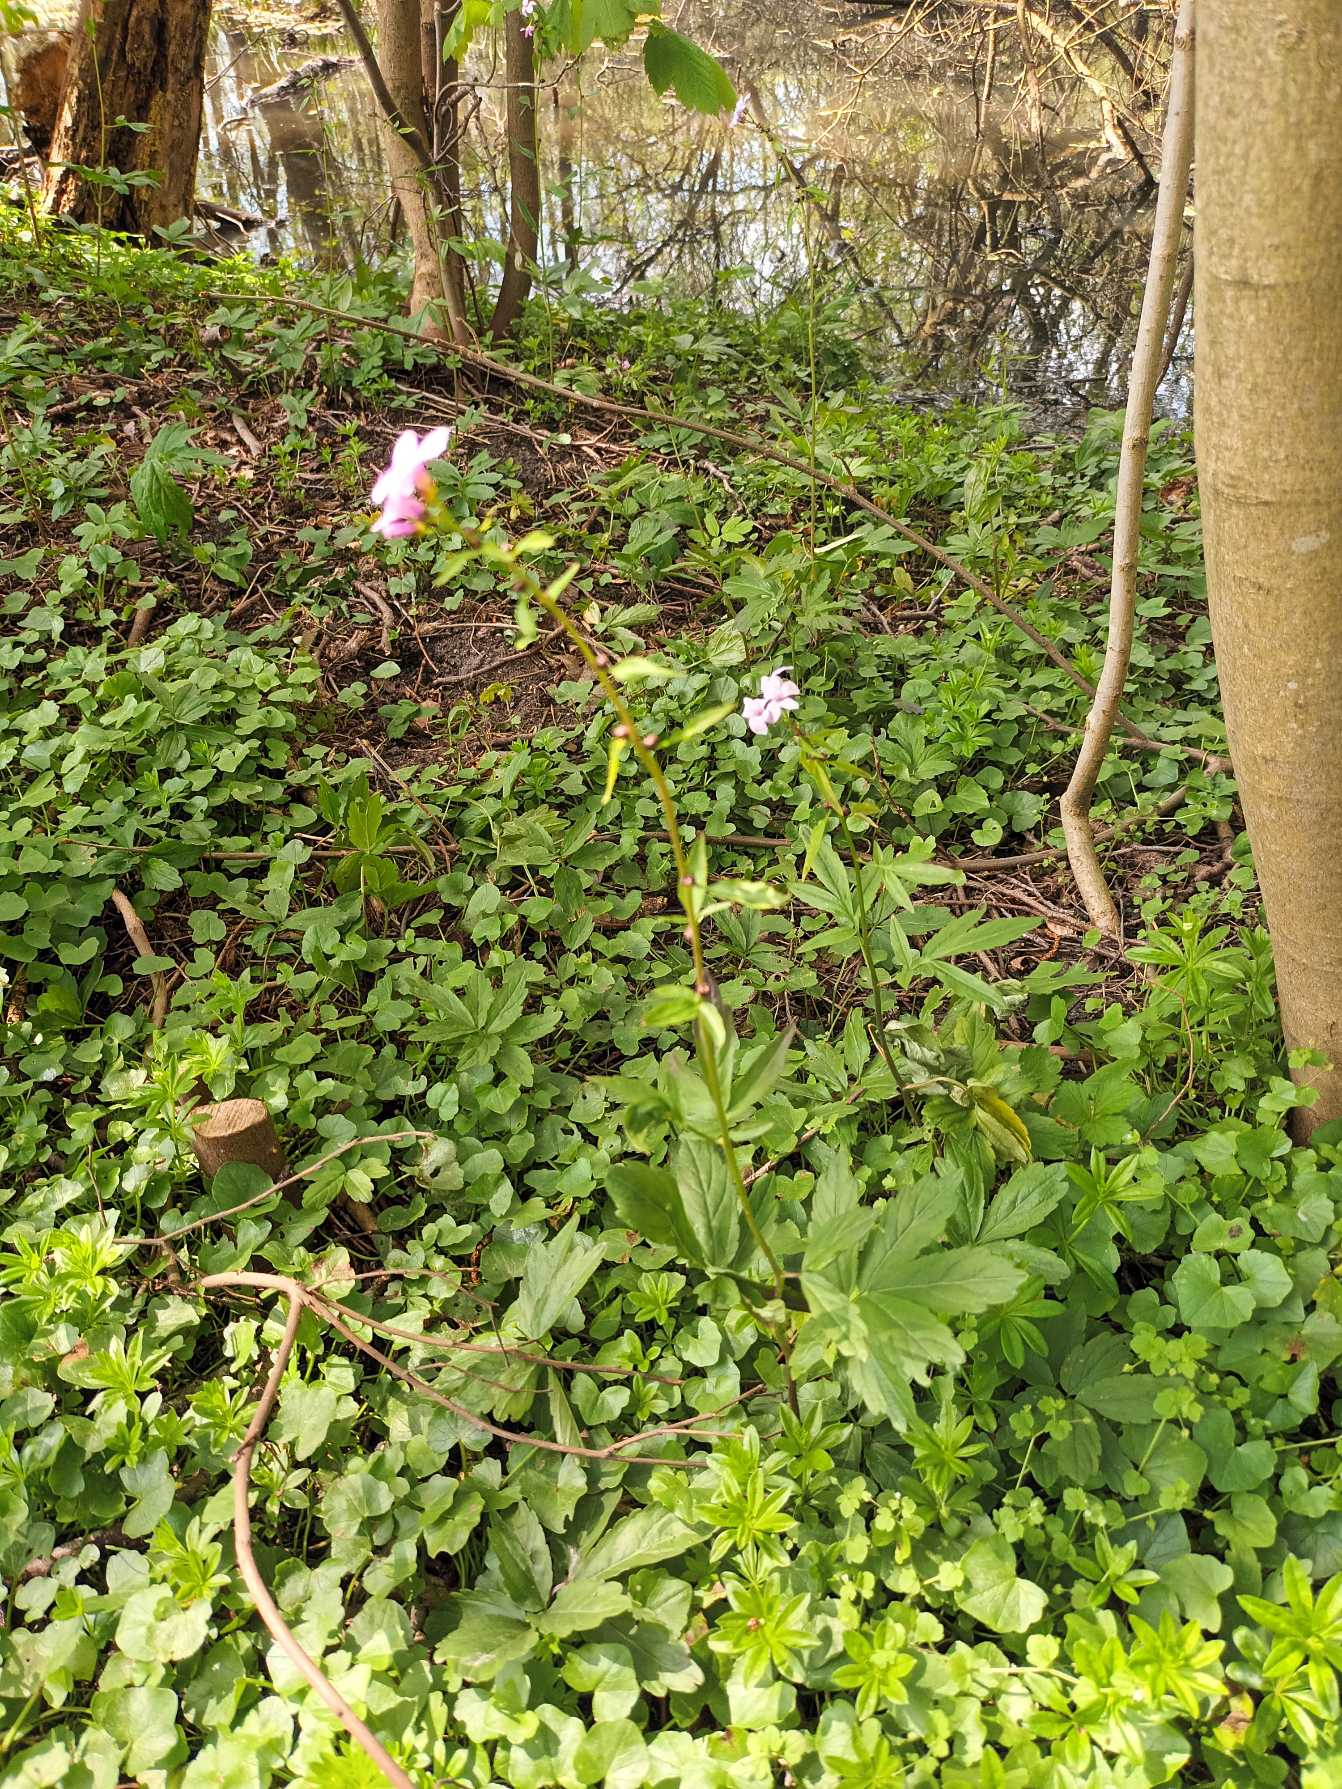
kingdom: Plantae
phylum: Tracheophyta
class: Magnoliopsida
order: Brassicales
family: Brassicaceae
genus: Cardamine
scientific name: Cardamine bulbifera
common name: Tandrod
